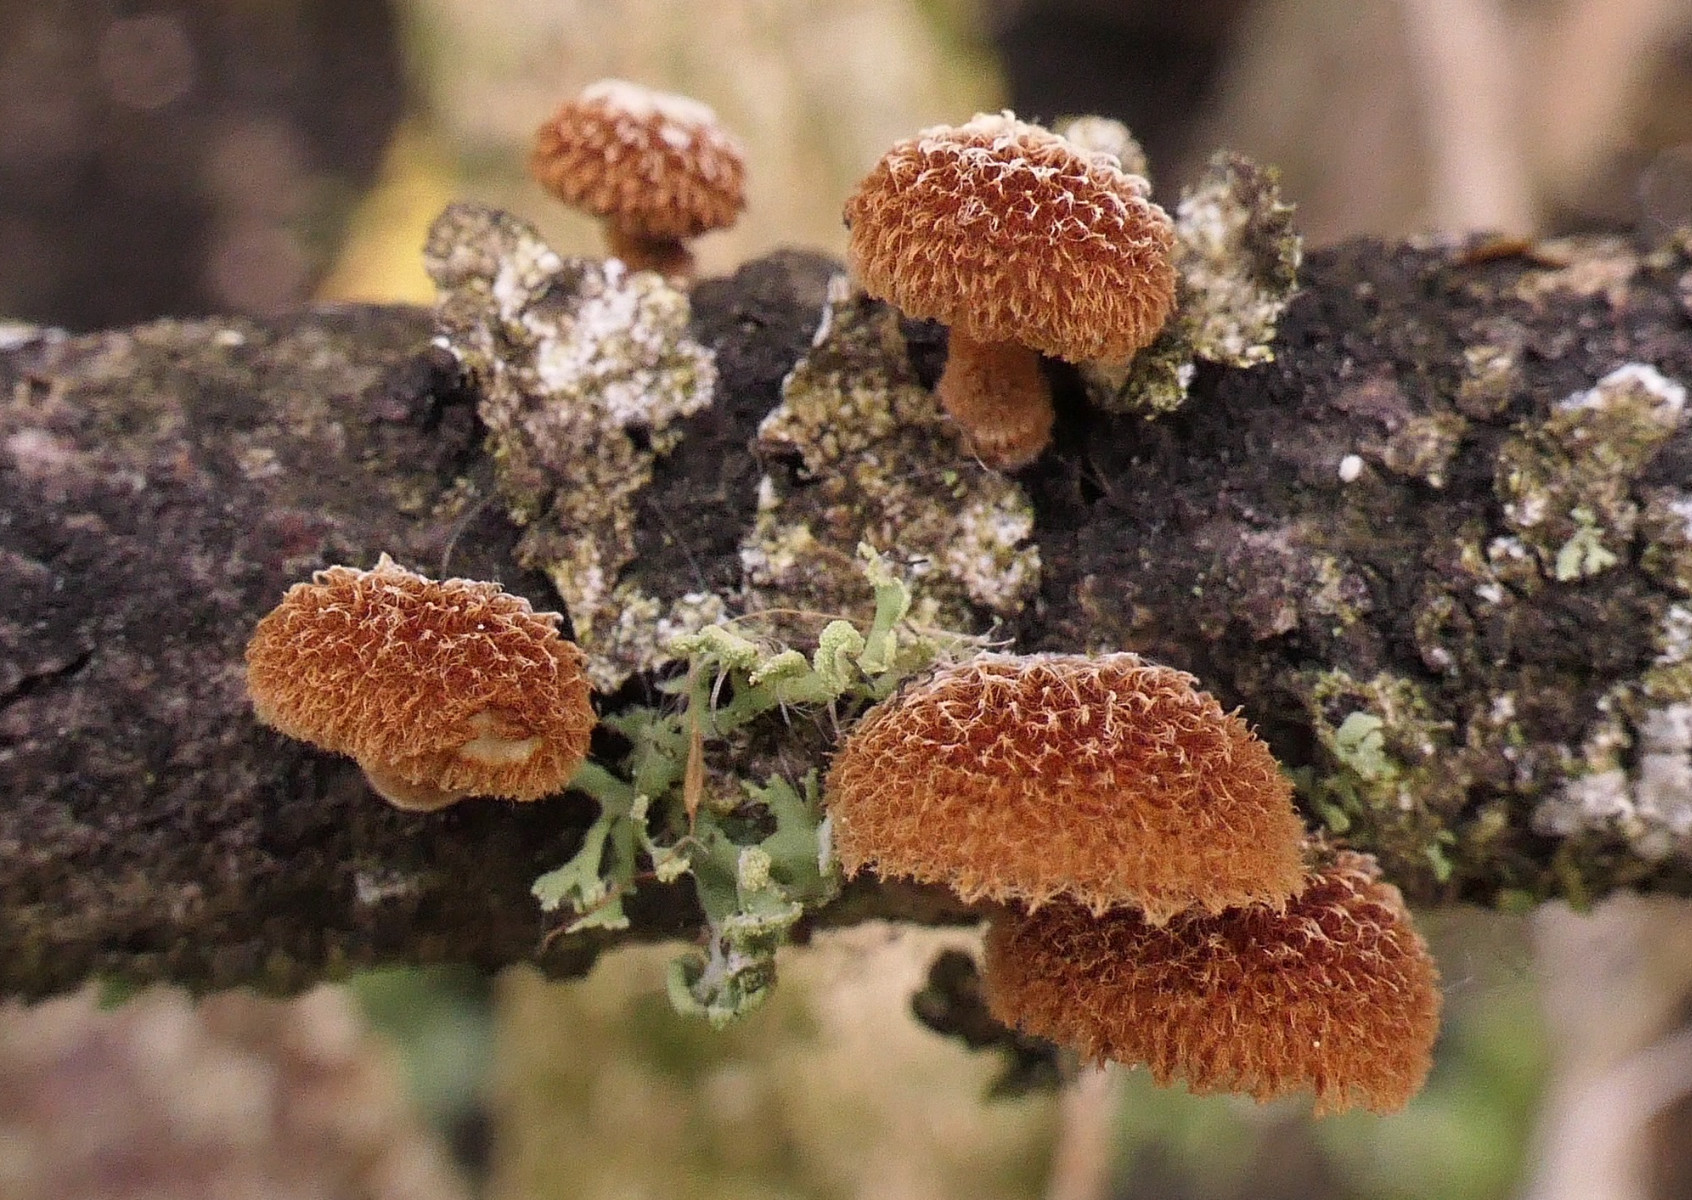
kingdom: Fungi
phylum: Basidiomycota
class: Agaricomycetes
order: Agaricales
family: Tubariaceae
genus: Phaeomarasmius
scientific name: Phaeomarasmius erinaceus
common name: spidsskælhat
